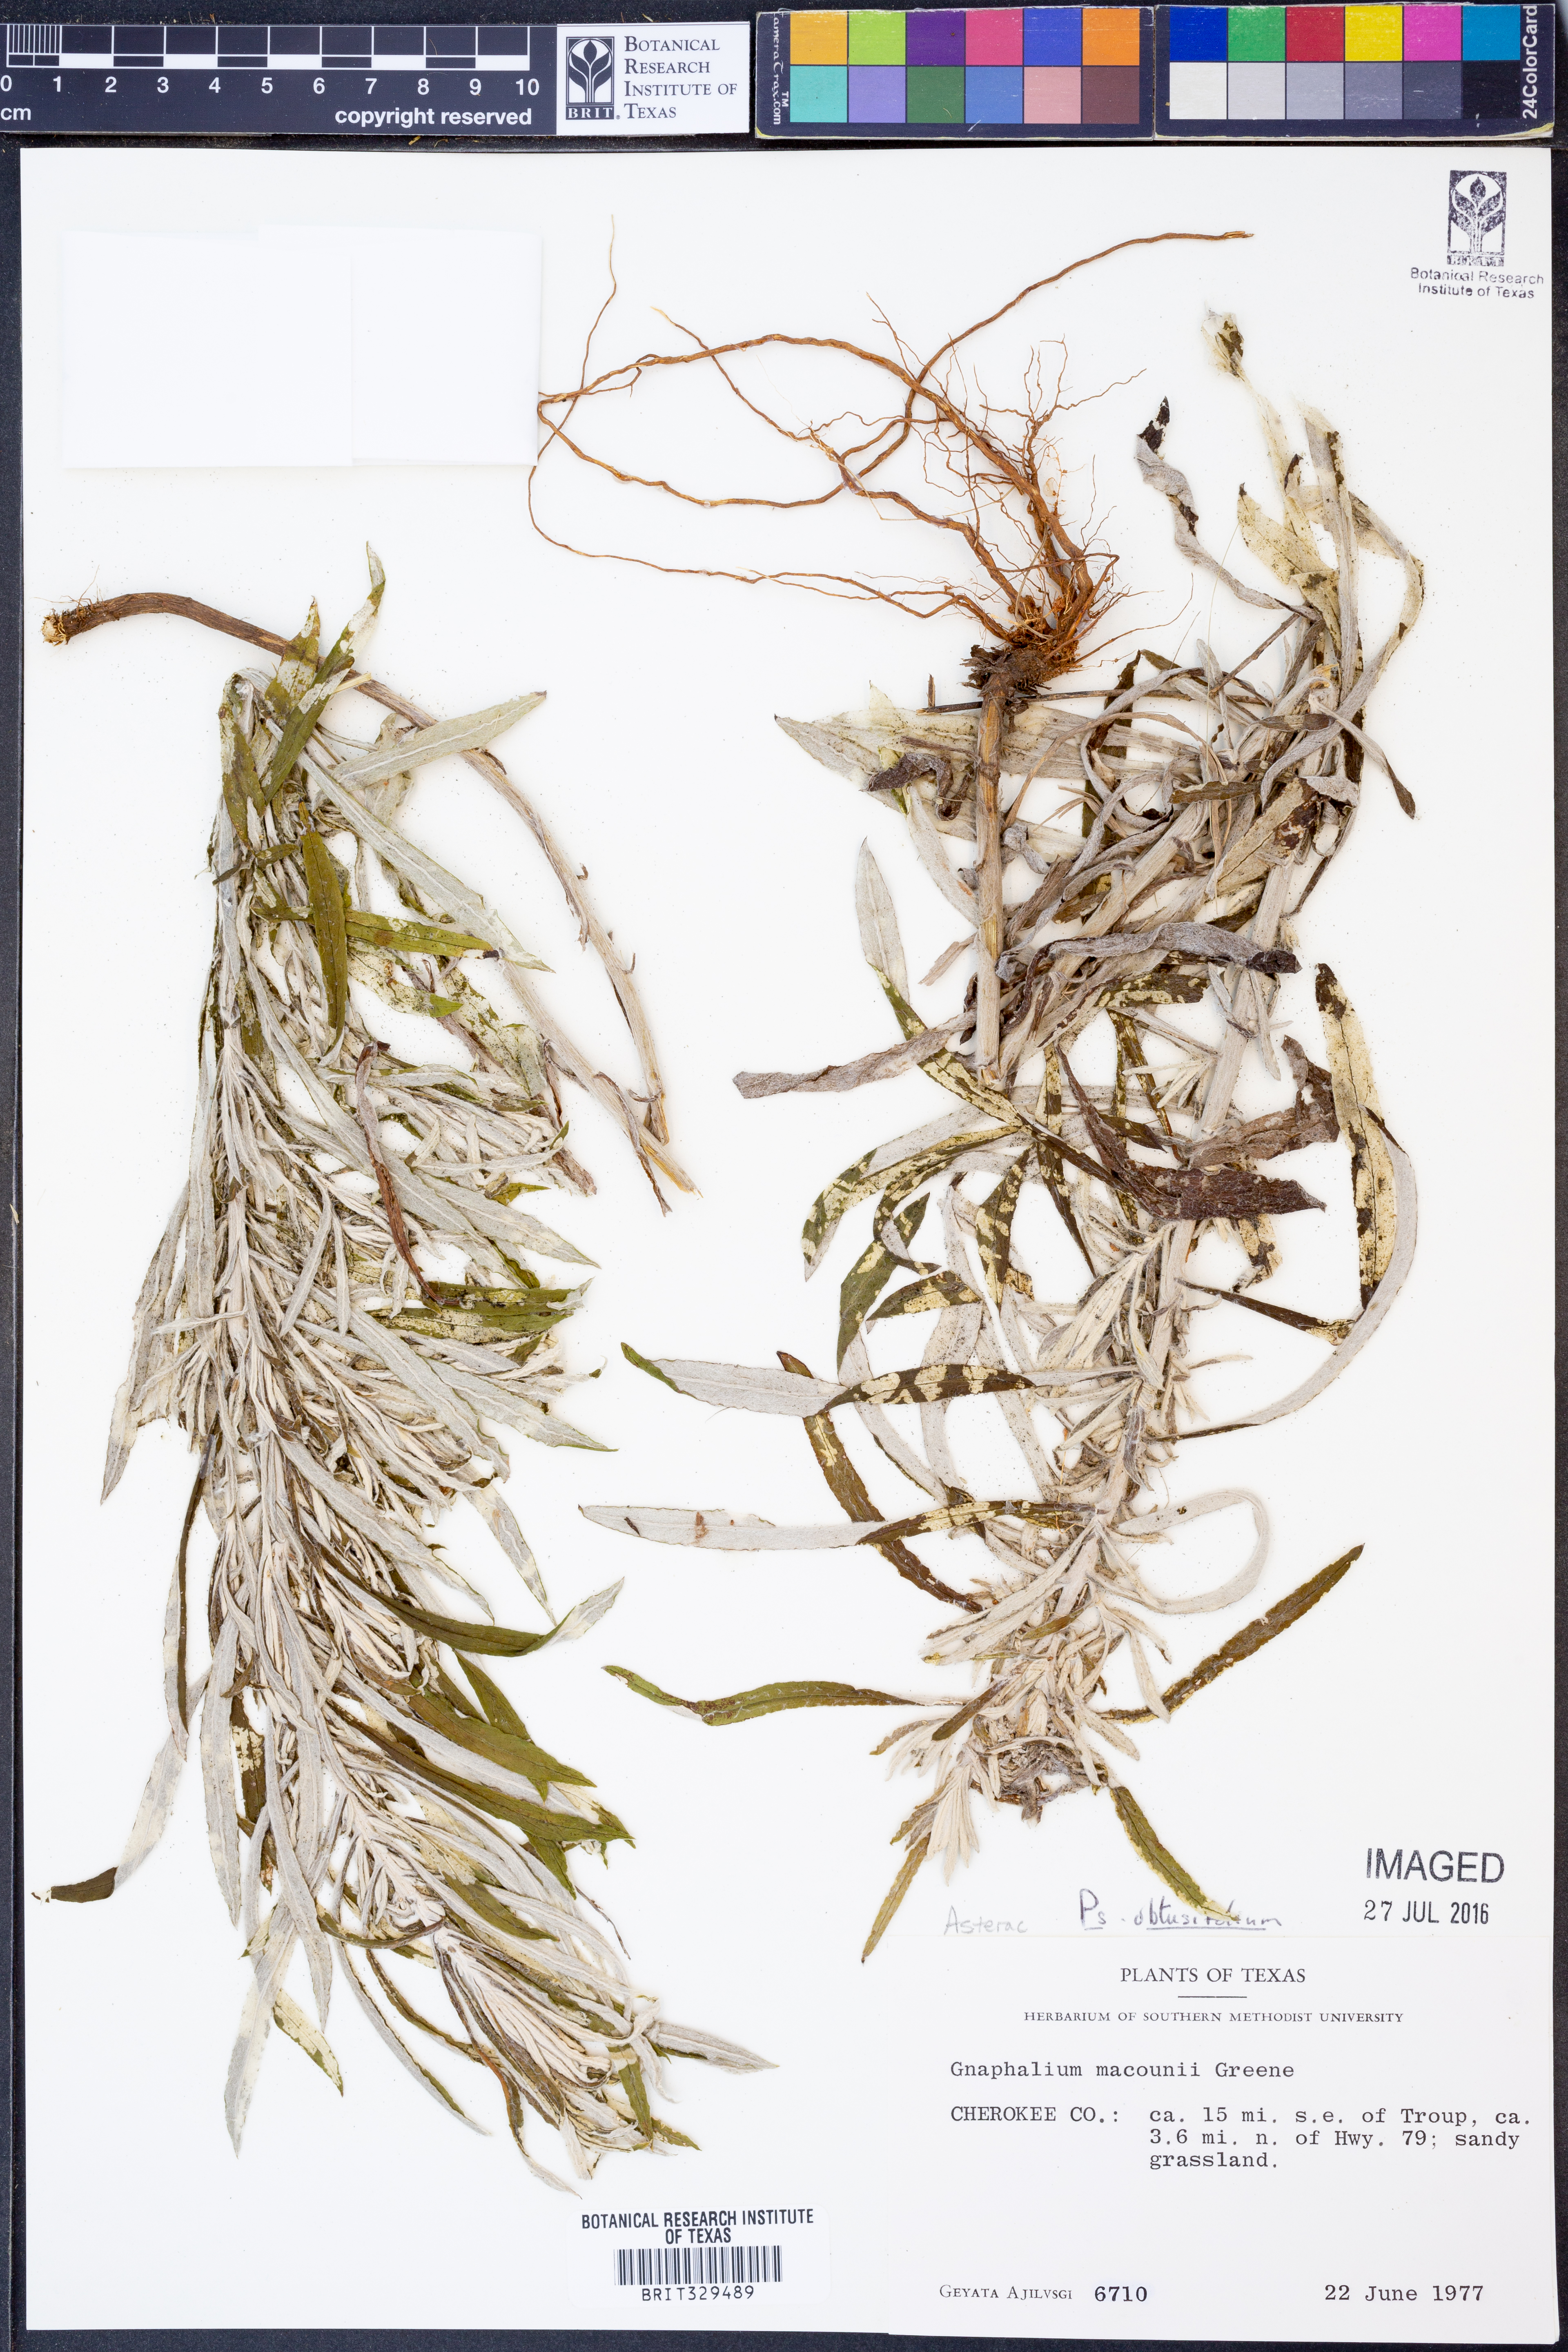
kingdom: Plantae
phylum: Tracheophyta
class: Magnoliopsida
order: Asterales
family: Asteraceae
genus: Pseudognaphalium
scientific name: Pseudognaphalium obtusifolium
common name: Eastern rabbit-tobacco
